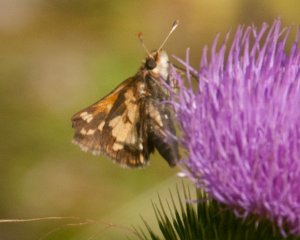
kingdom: Animalia
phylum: Arthropoda
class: Insecta
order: Lepidoptera
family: Hesperiidae
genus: Polites
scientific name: Polites coras
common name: Peck's Skipper
